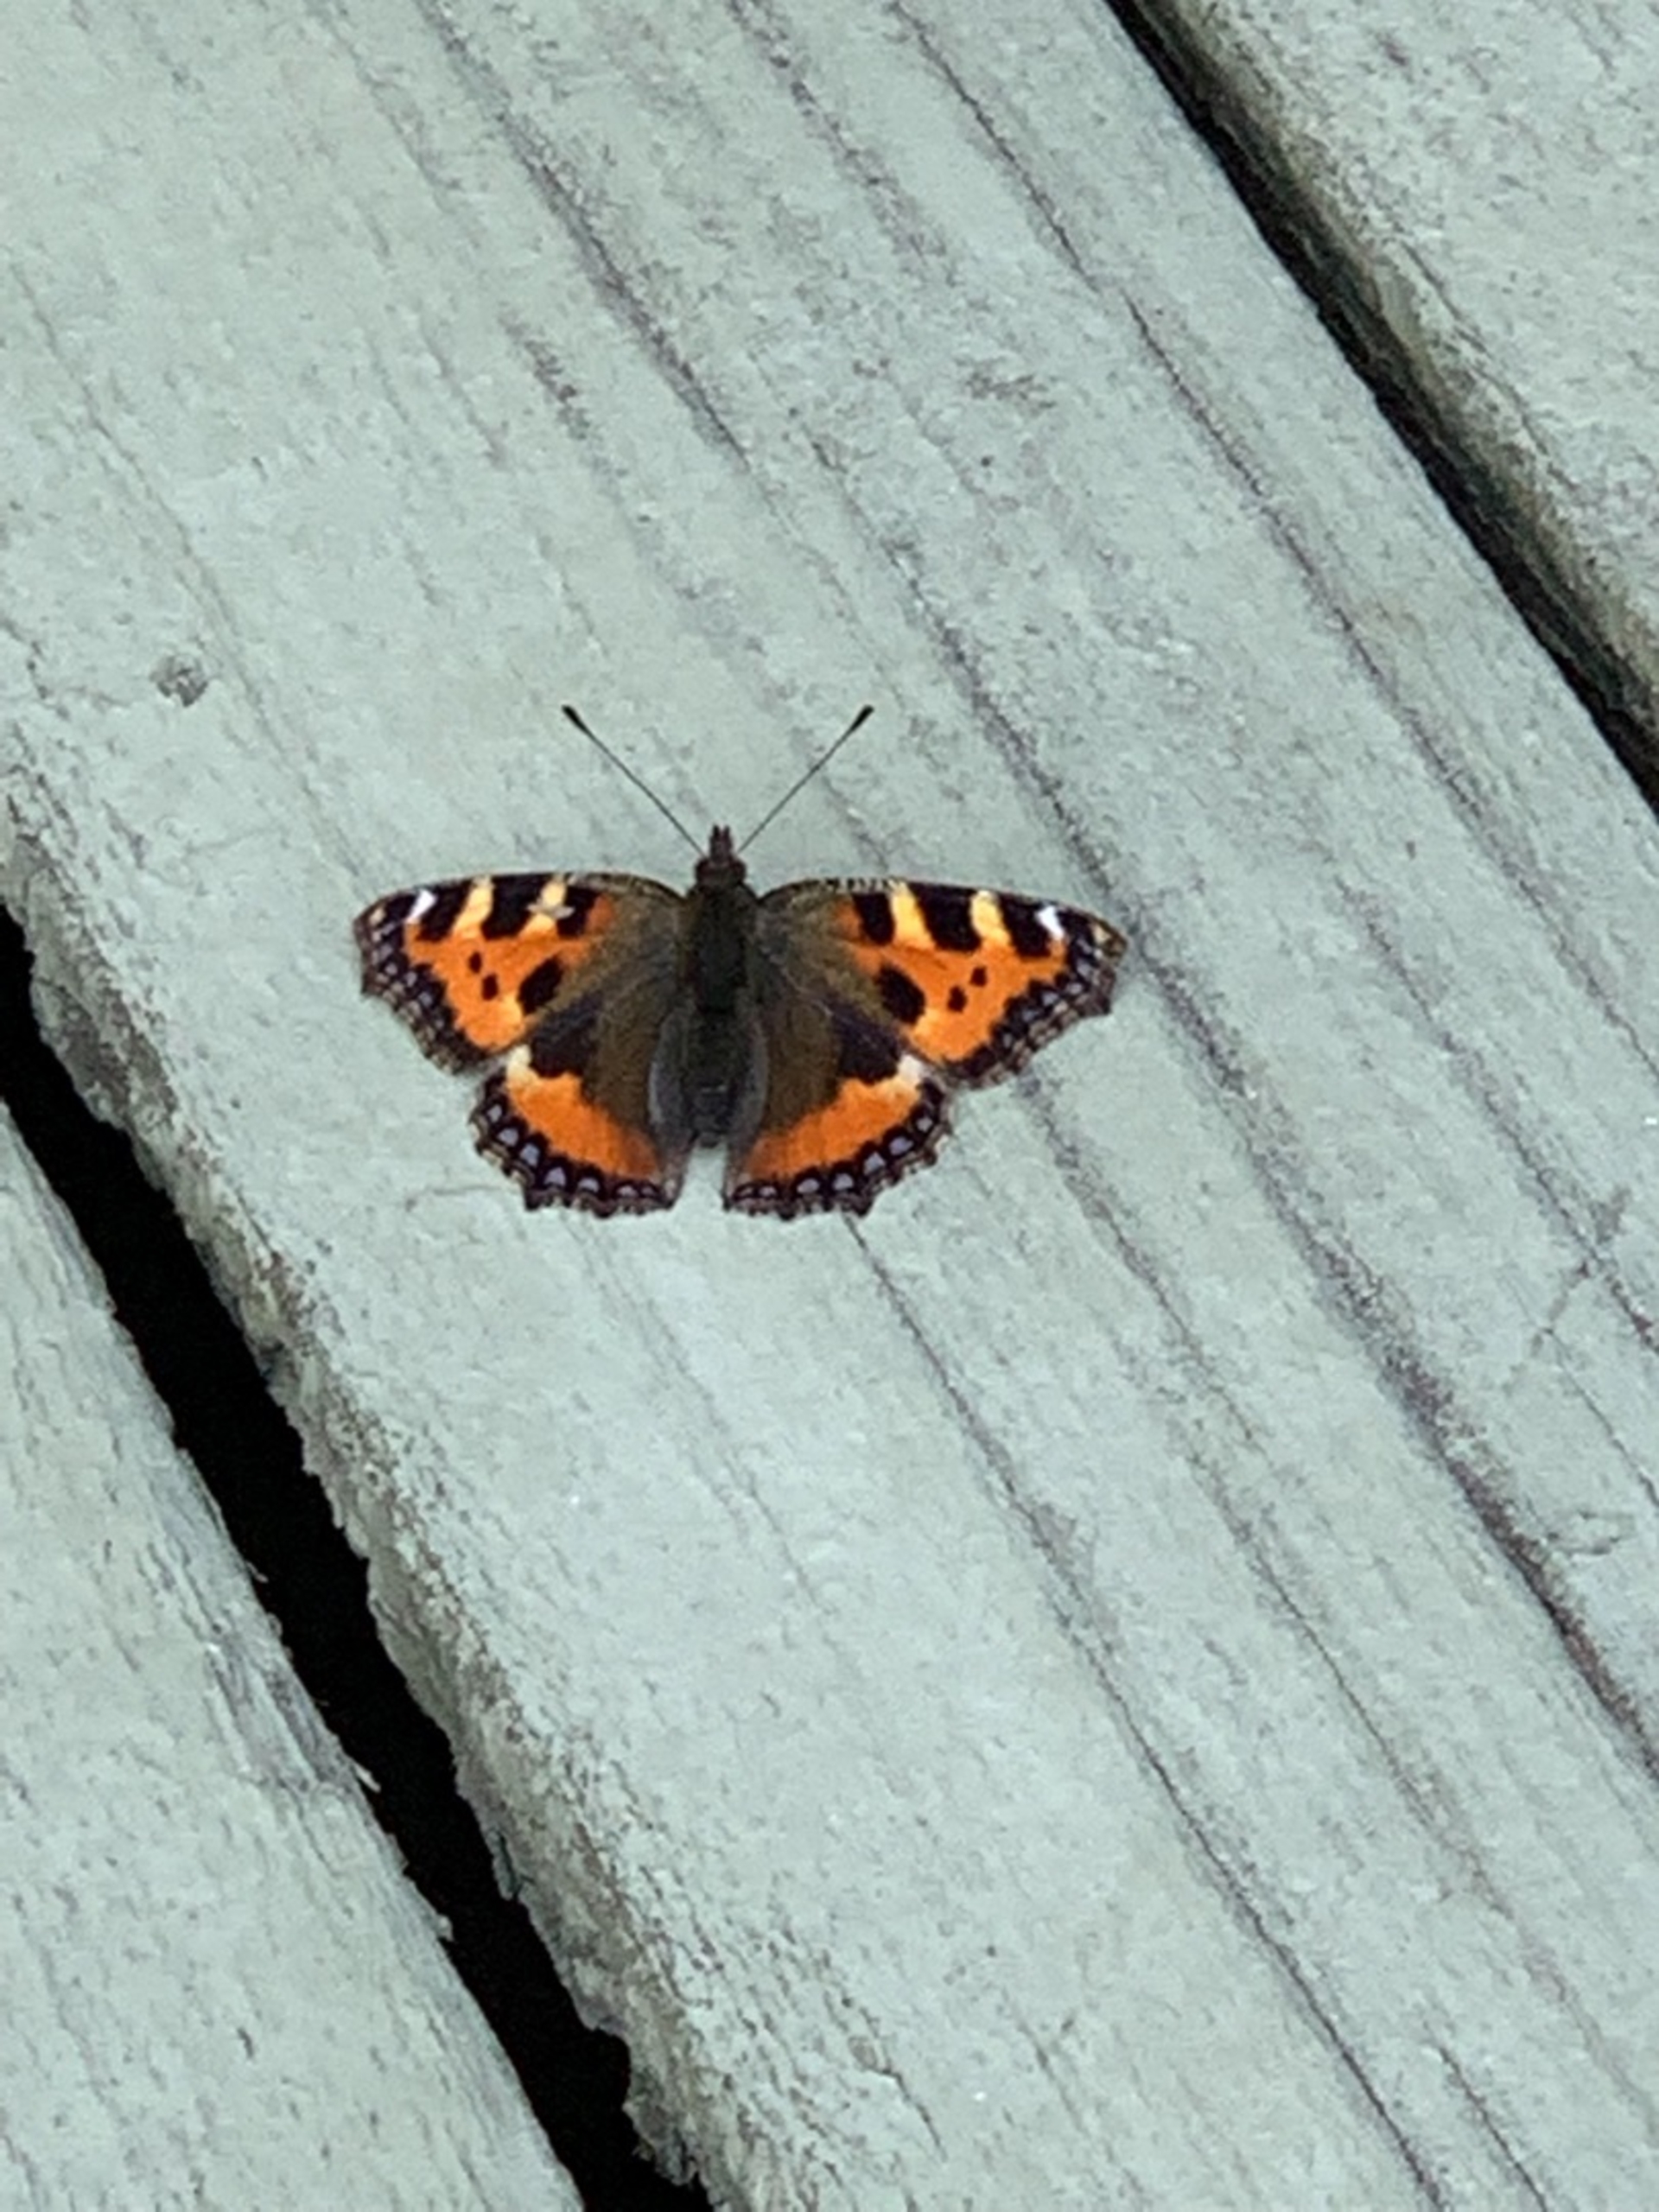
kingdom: Animalia
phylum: Arthropoda
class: Insecta
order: Lepidoptera
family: Nymphalidae
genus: Aglais
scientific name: Aglais urticae
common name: Nældens takvinge
